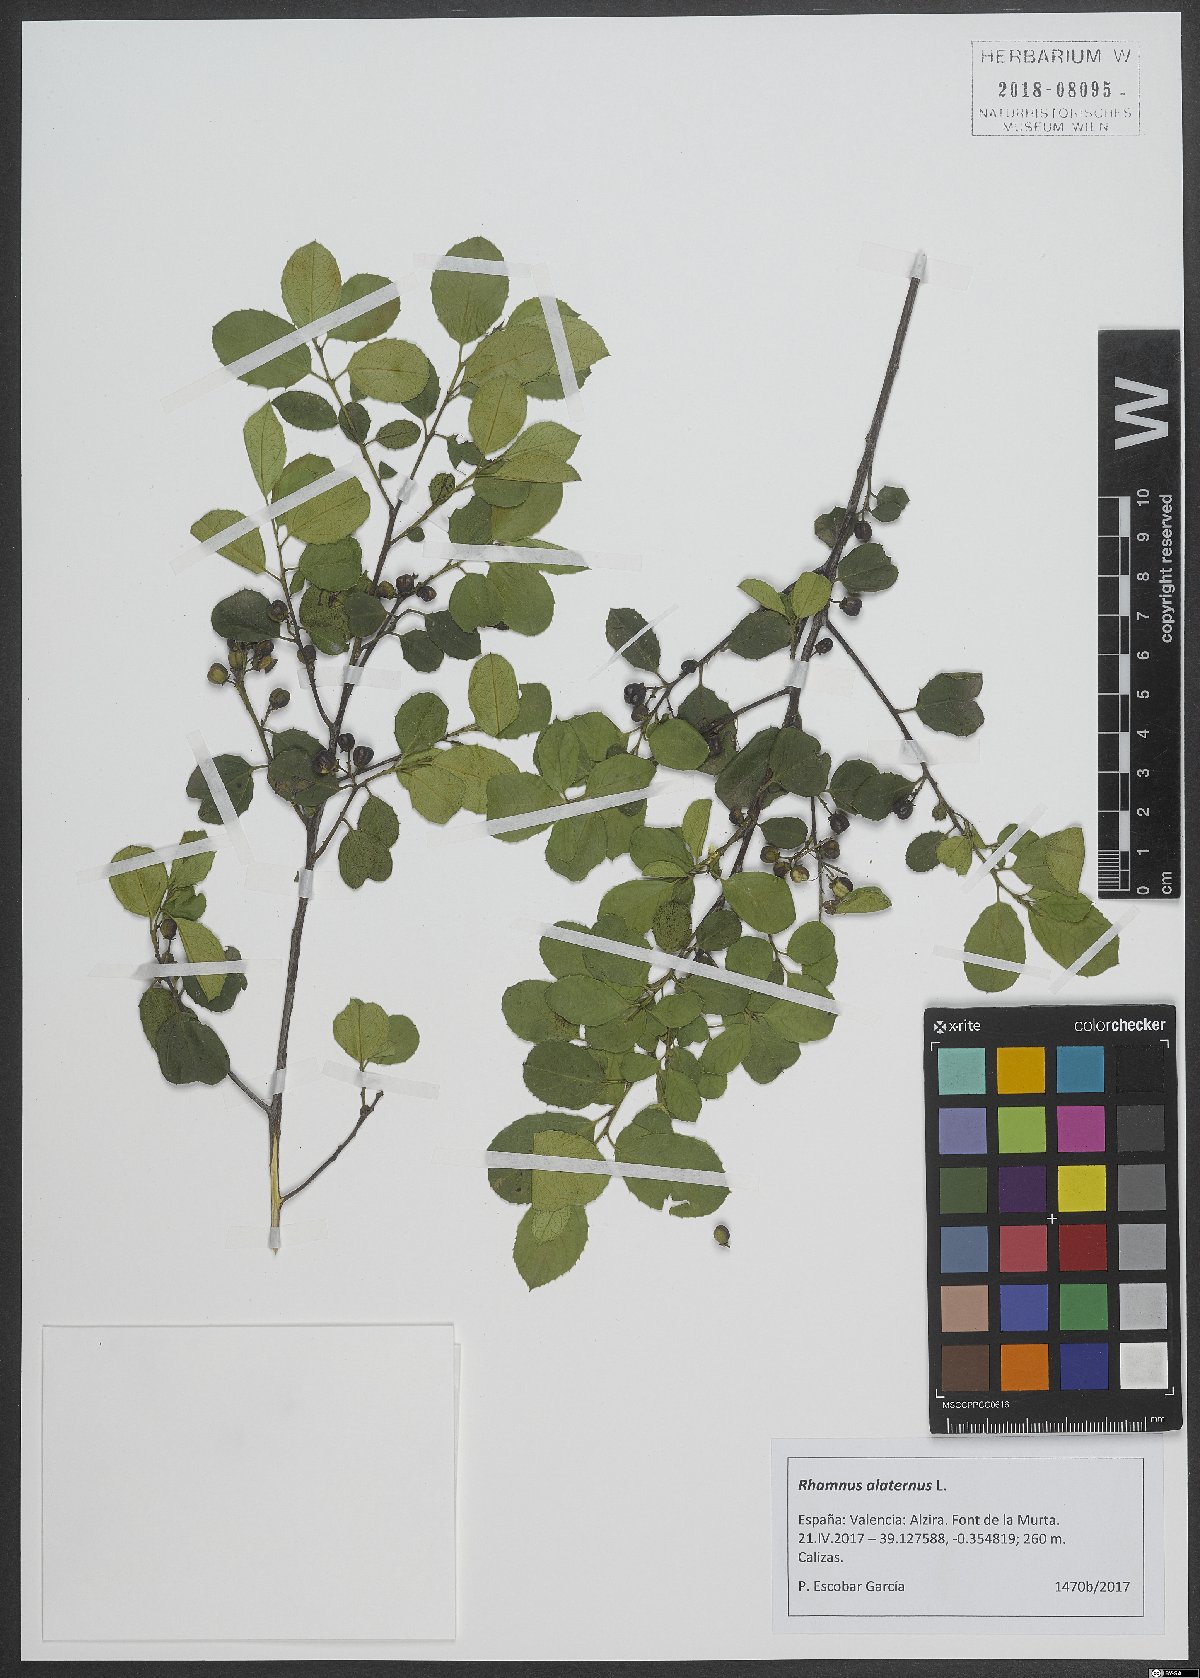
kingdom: Plantae
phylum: Tracheophyta
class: Magnoliopsida
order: Rosales
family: Rhamnaceae
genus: Rhamnus
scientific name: Rhamnus alaternus
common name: Mediterranean buckthorn
